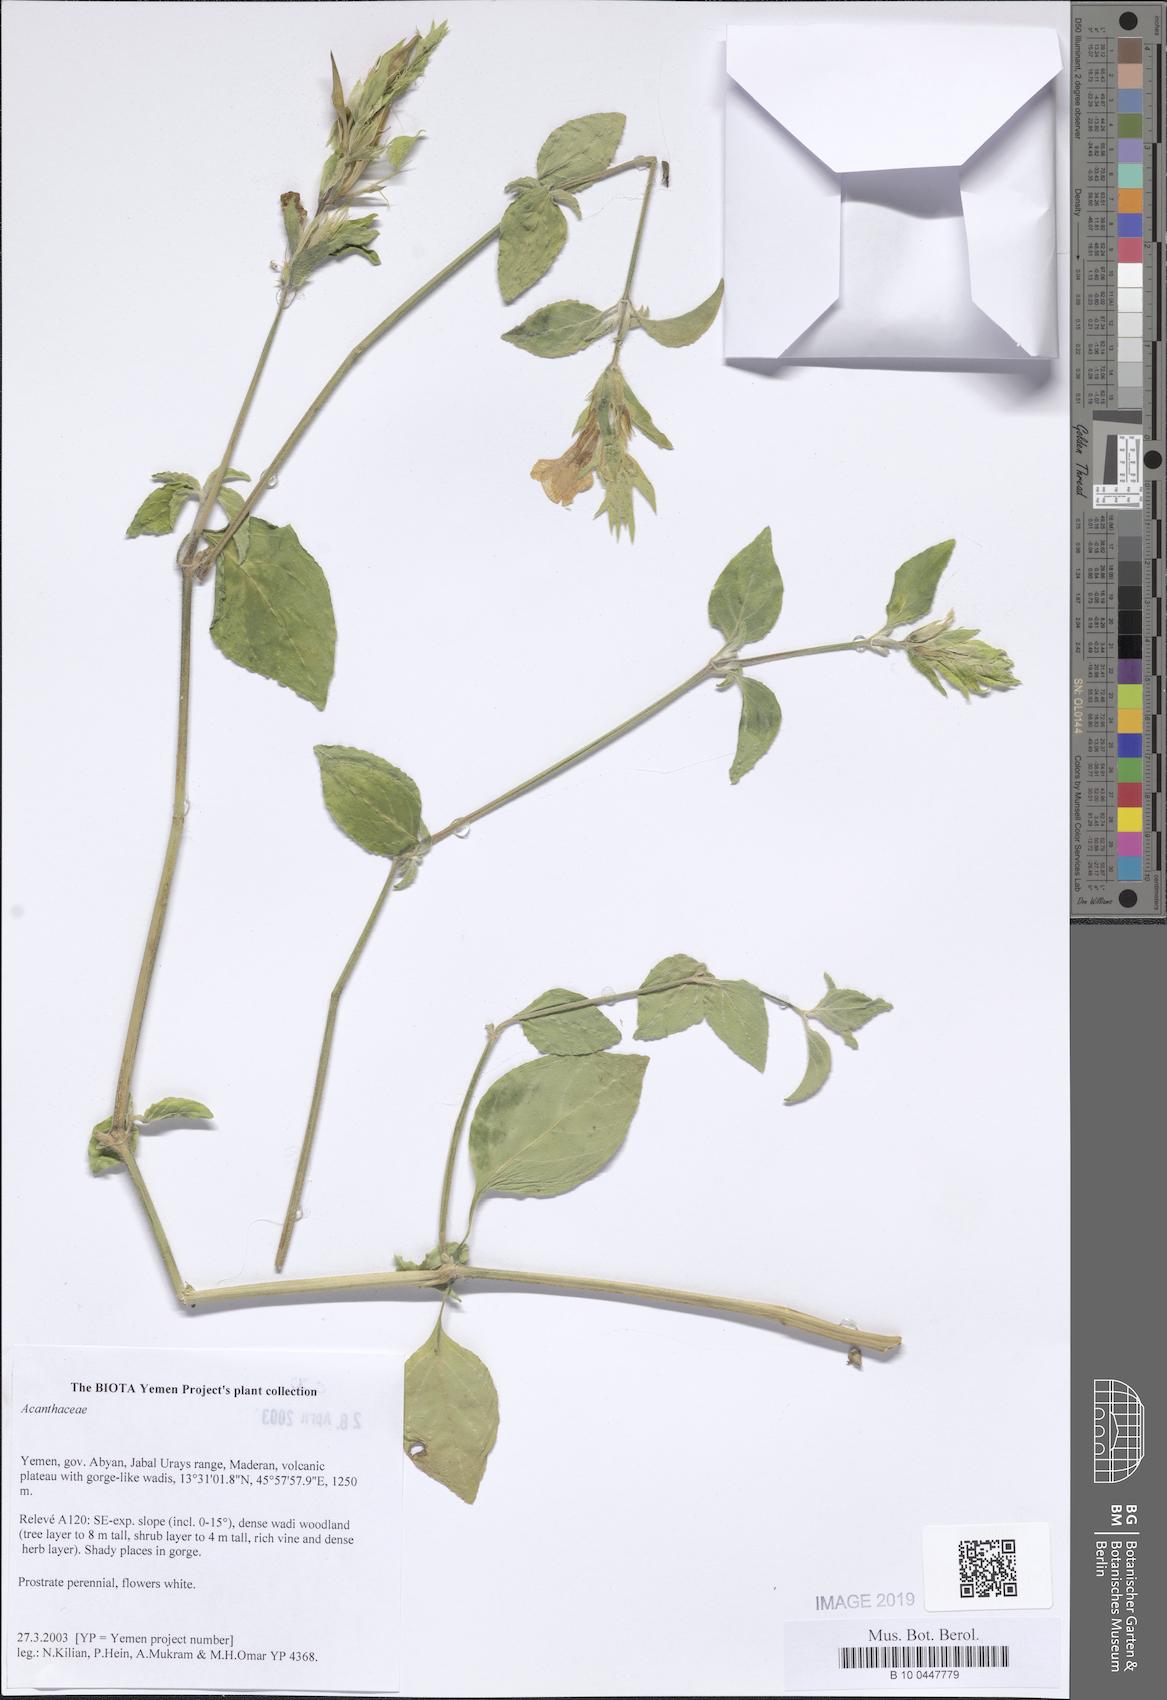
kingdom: Plantae
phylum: Tracheophyta
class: Magnoliopsida
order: Lamiales
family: Acanthaceae
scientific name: Acanthaceae
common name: Acanthaceae
